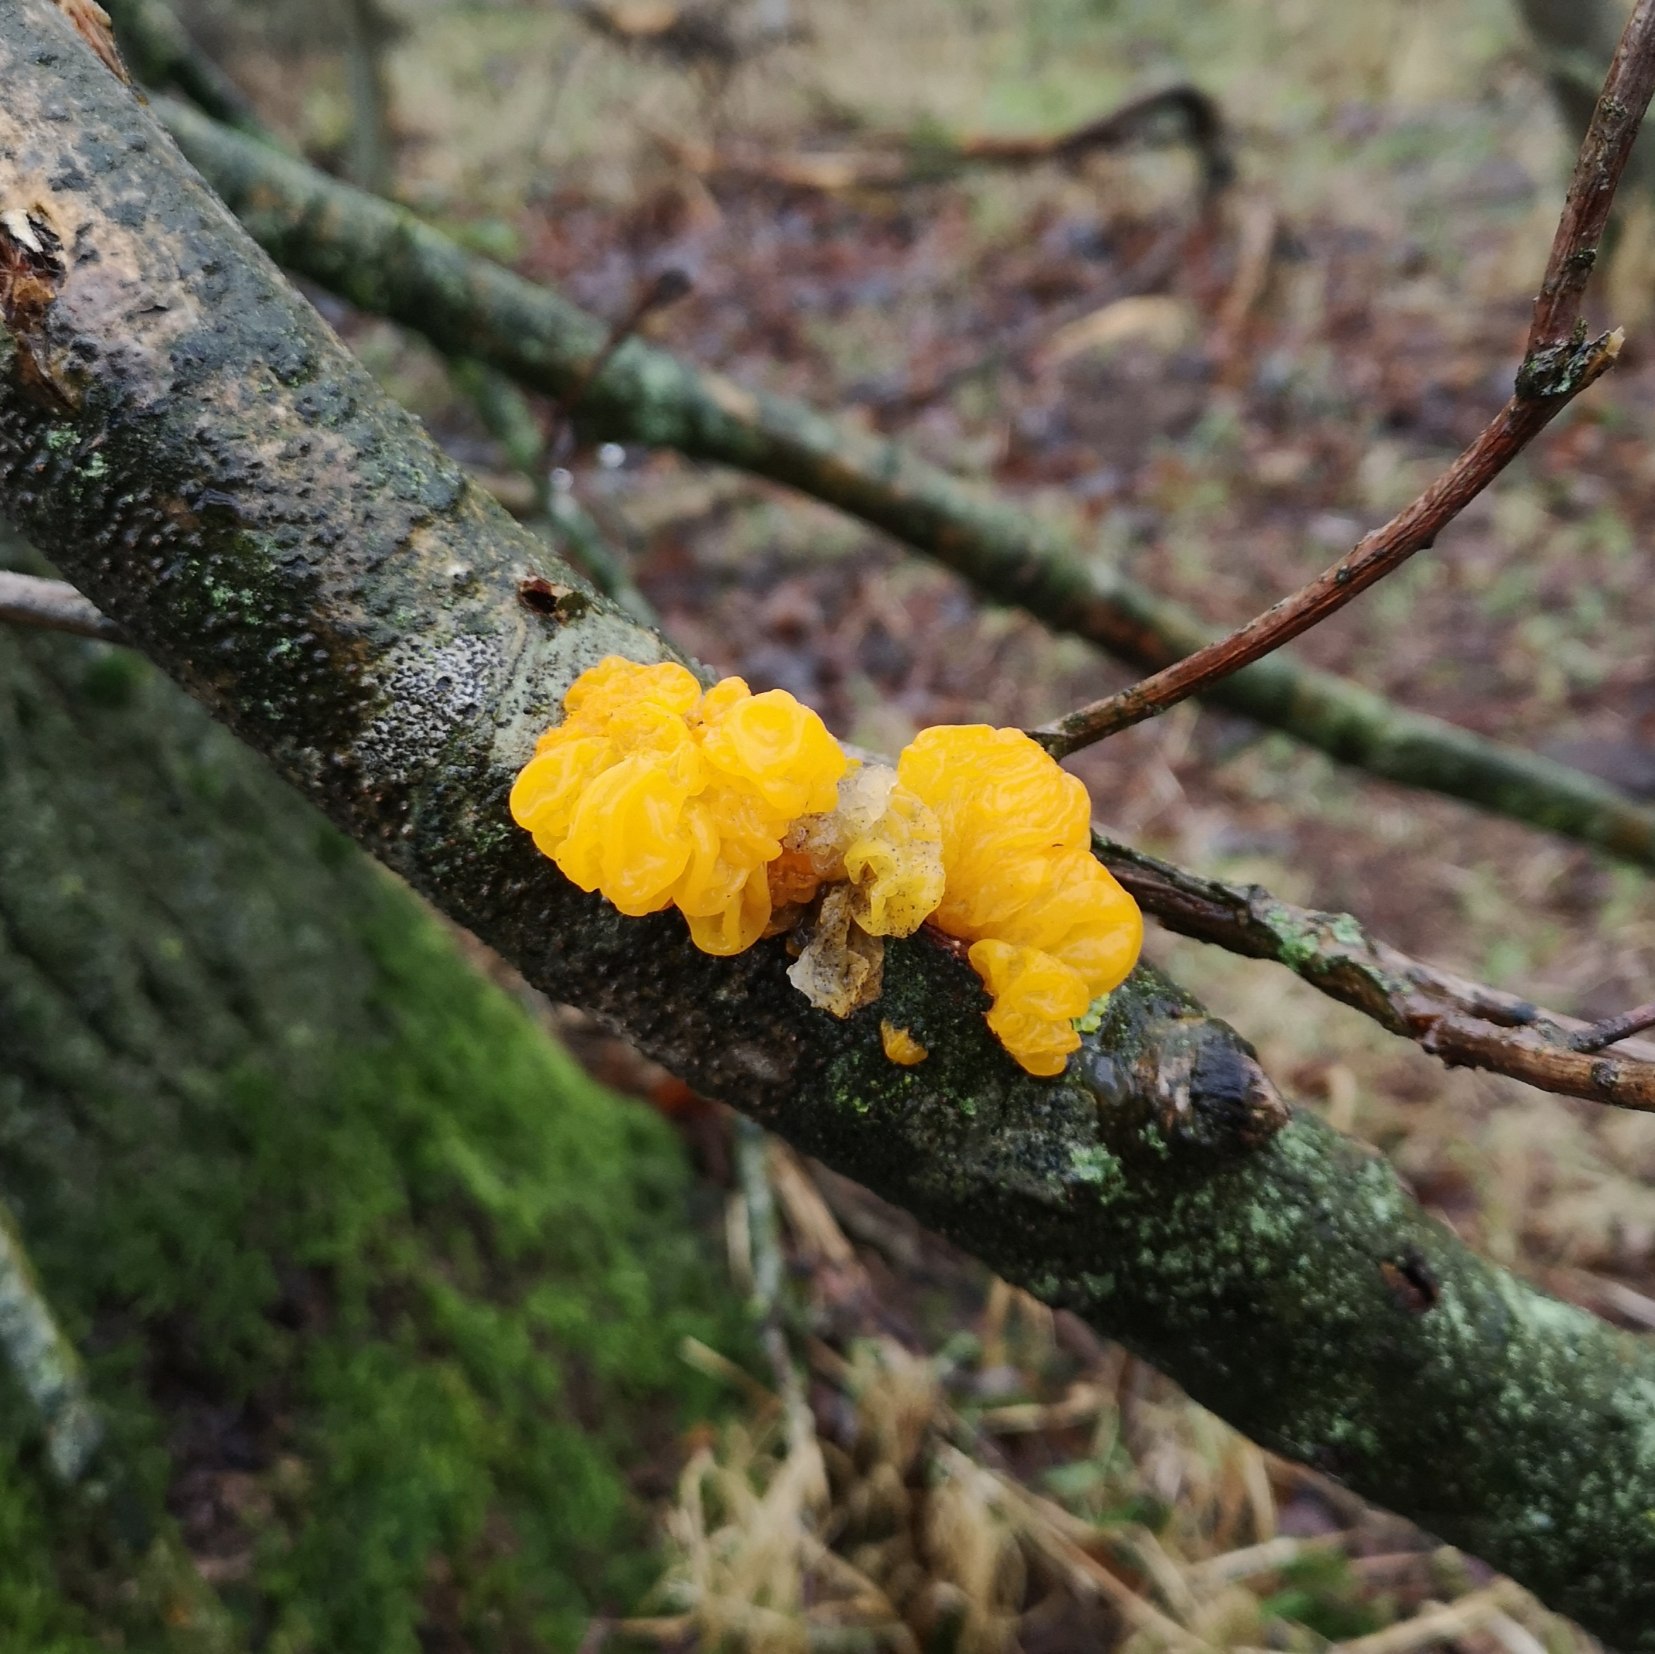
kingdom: Fungi
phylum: Basidiomycota
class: Tremellomycetes
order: Tremellales
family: Tremellaceae
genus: Tremella
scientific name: Tremella mesenterica
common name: Gul bævresvamp
